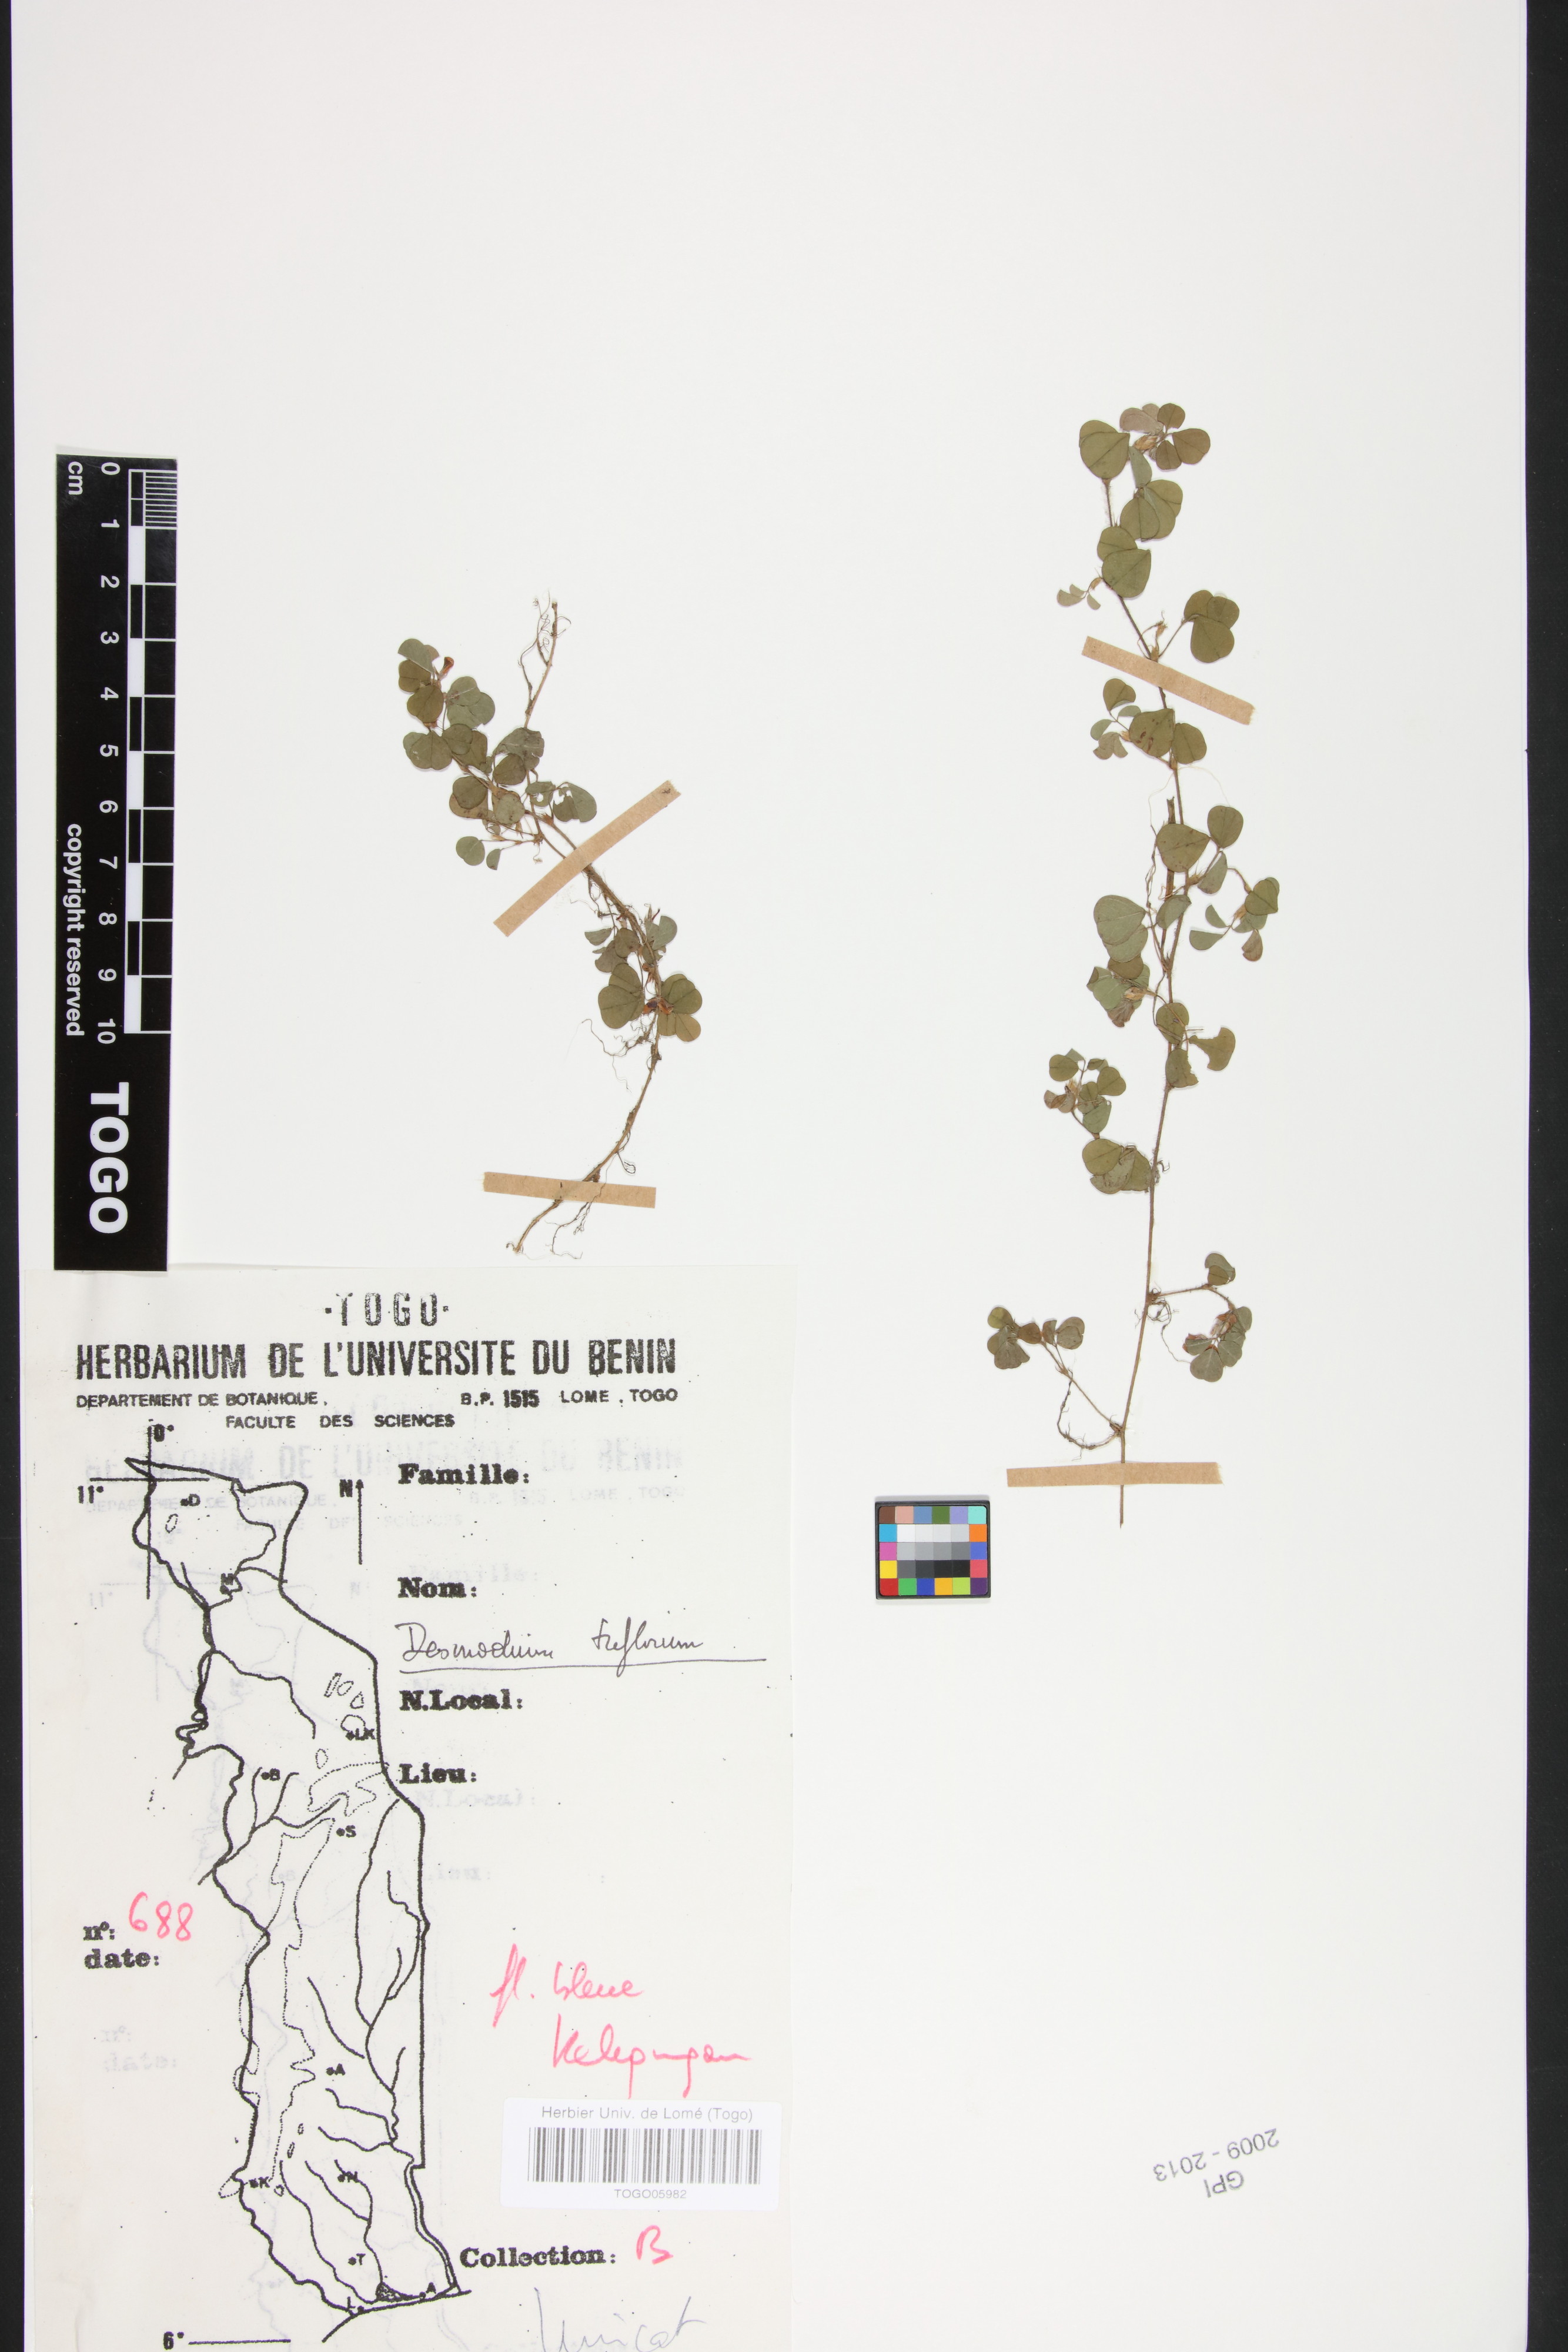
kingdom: Plantae
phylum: Tracheophyta
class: Magnoliopsida
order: Fabales
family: Fabaceae
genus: Grona
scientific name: Grona triflora
